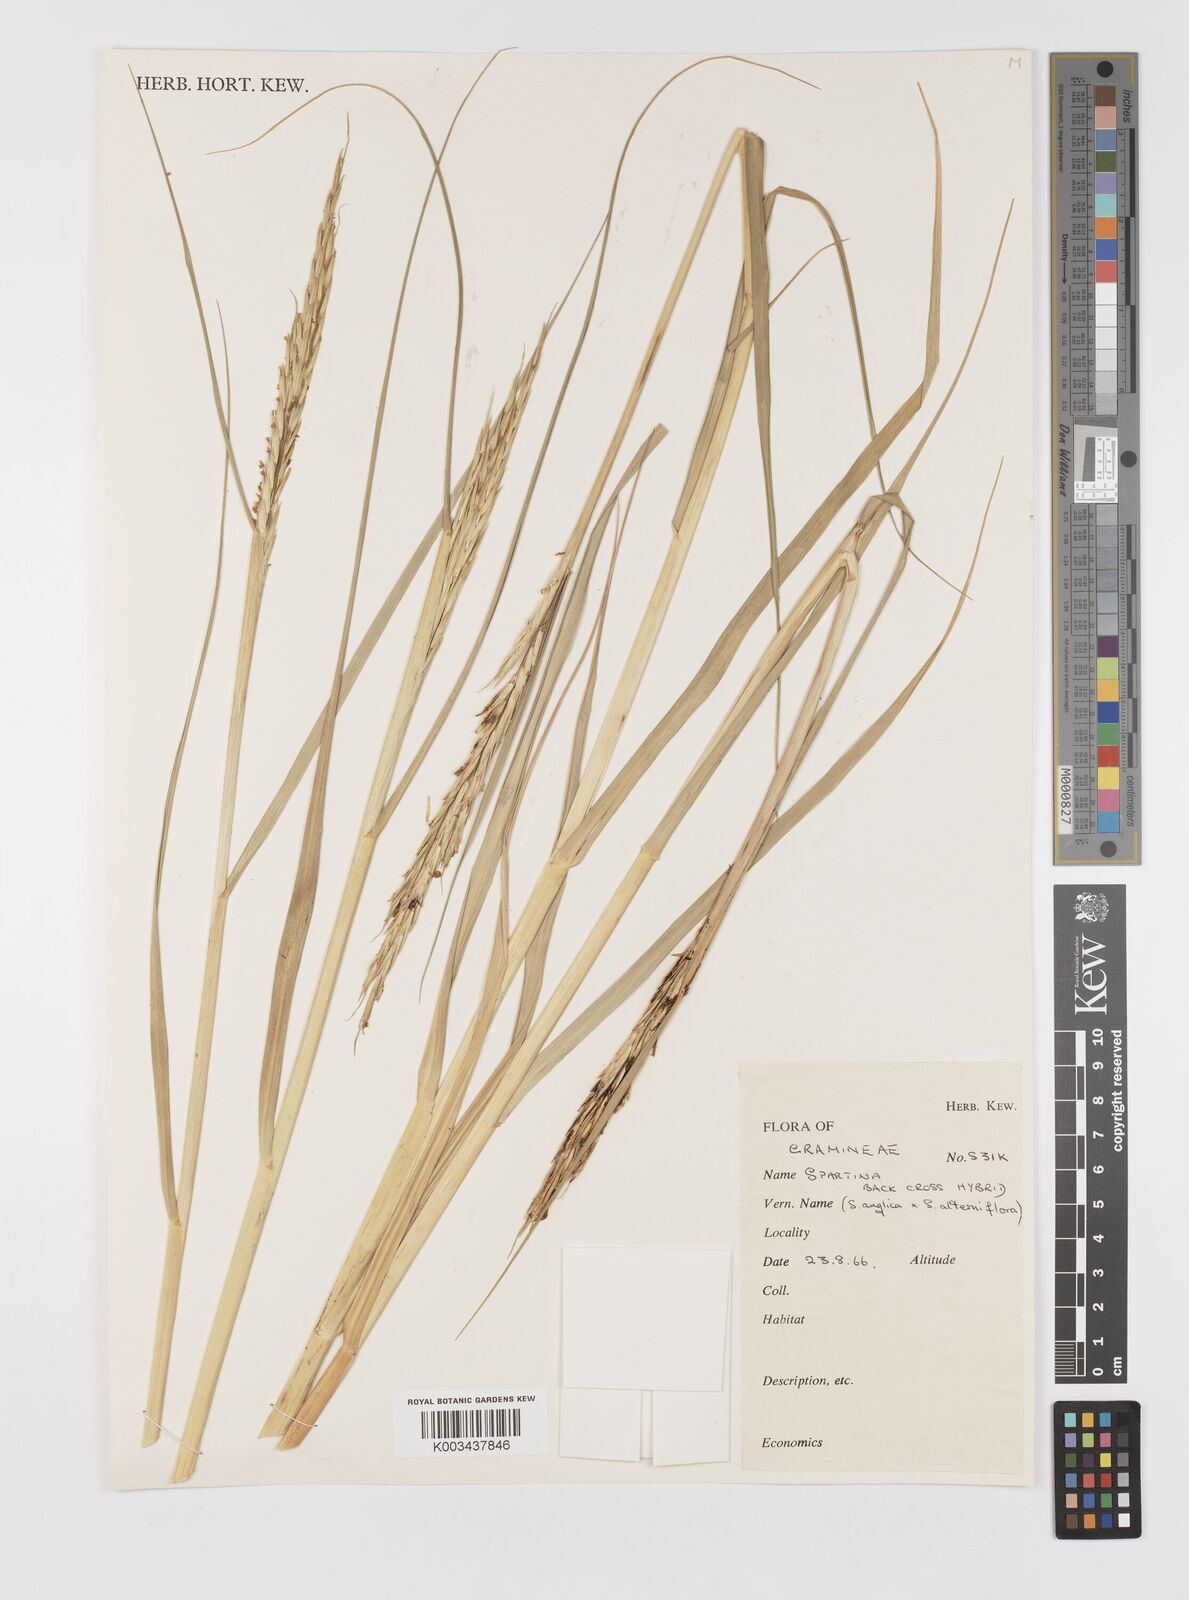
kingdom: Animalia
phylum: Mollusca
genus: Spartina
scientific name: Spartina
